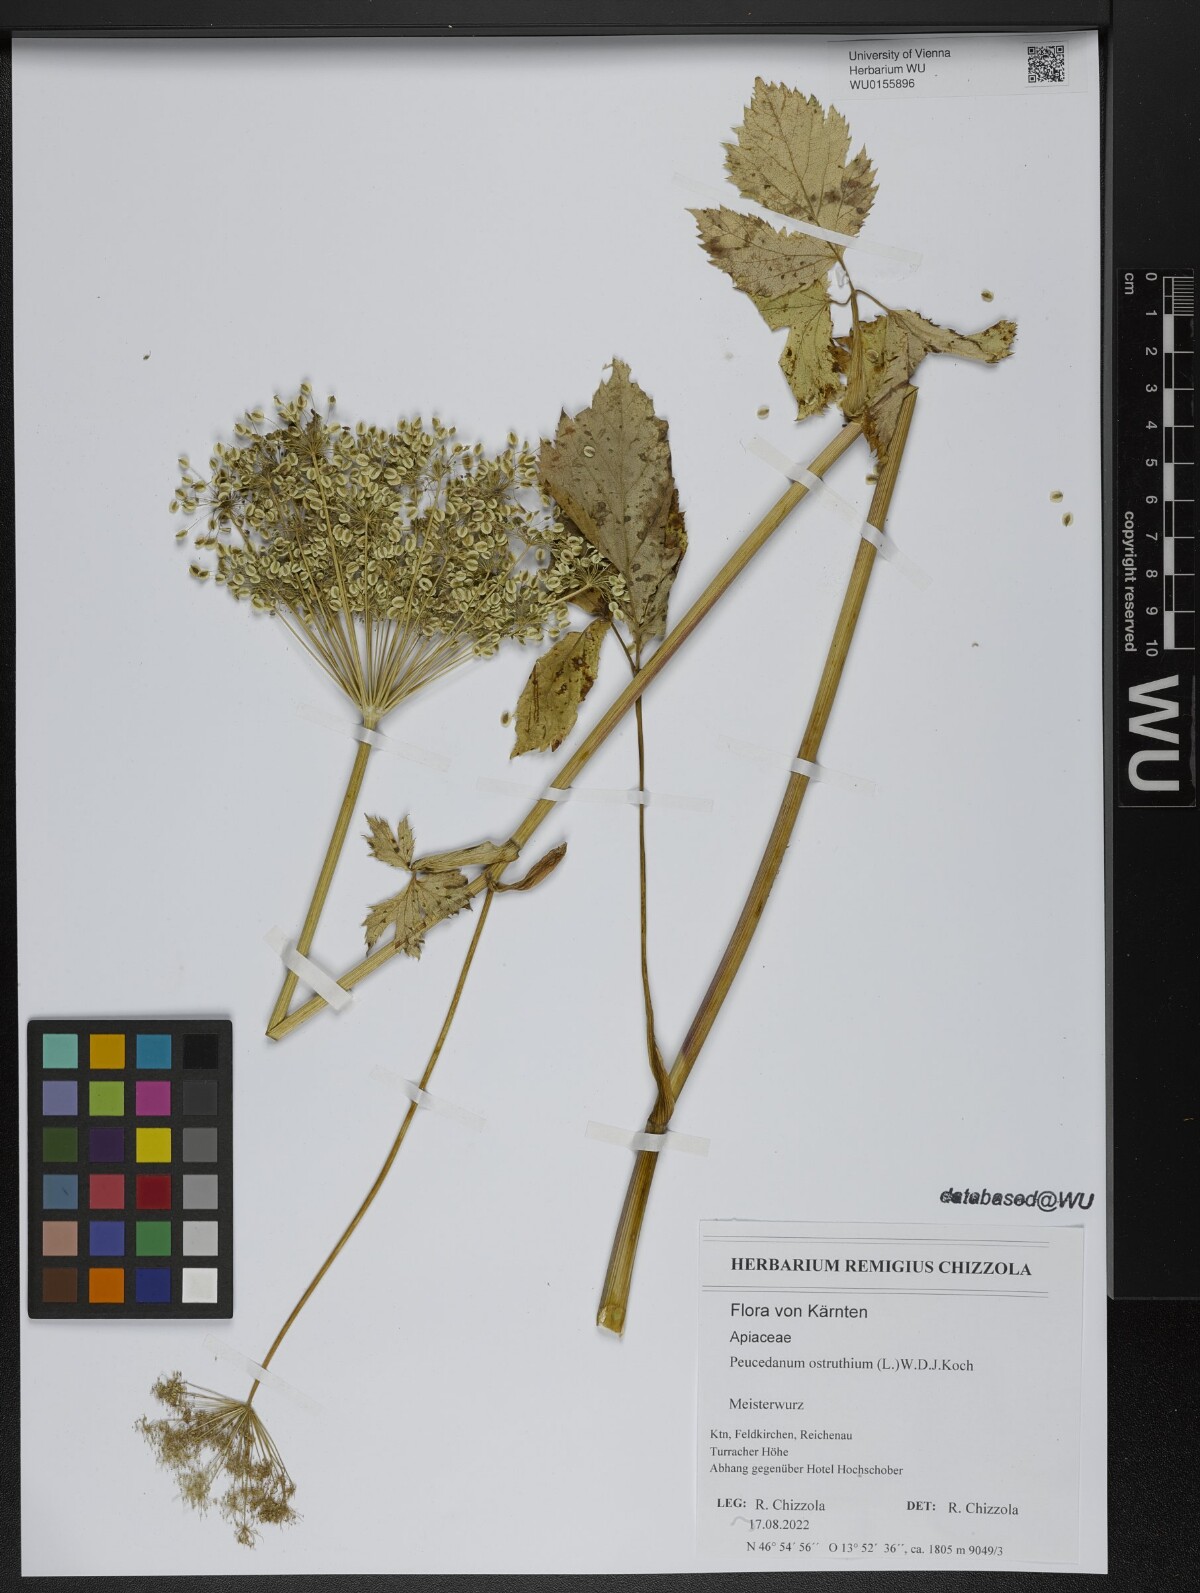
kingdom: Plantae
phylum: Tracheophyta
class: Magnoliopsida
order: Apiales
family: Apiaceae
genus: Imperatoria
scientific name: Imperatoria ostruthium
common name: Masterwort
